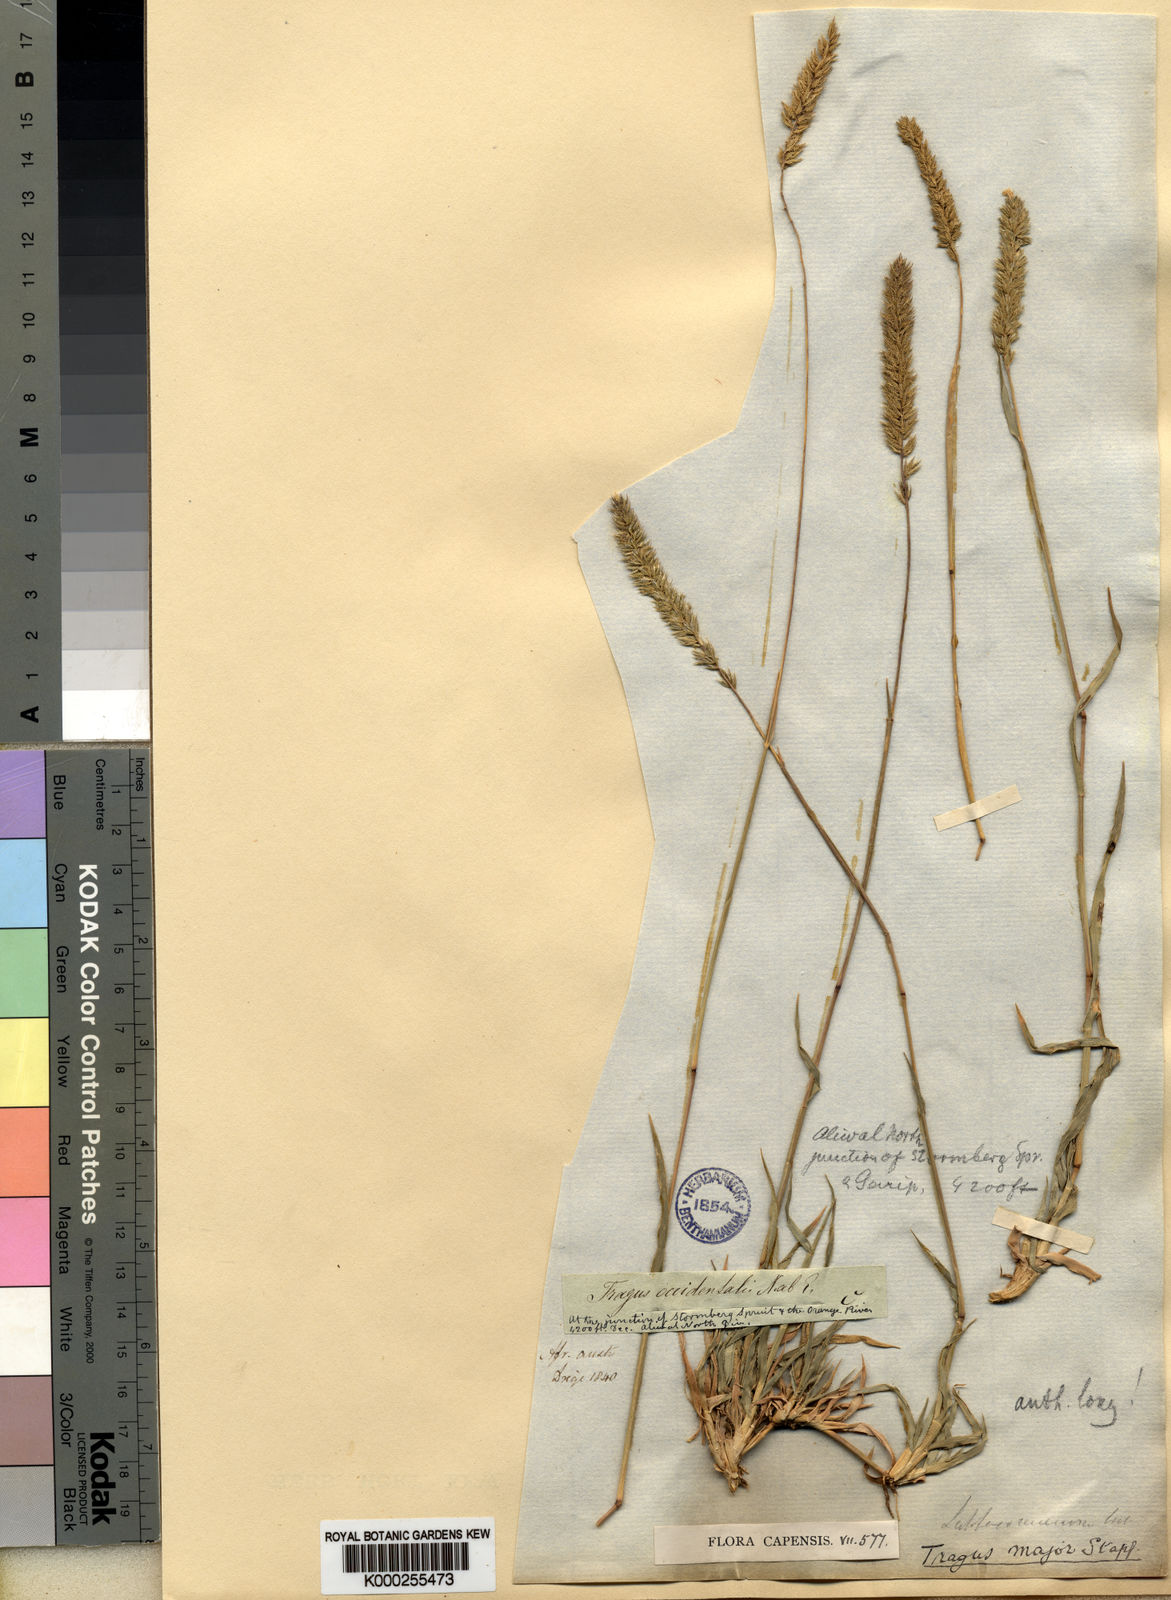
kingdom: Plantae
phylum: Tracheophyta
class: Liliopsida
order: Poales
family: Poaceae
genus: Tragus
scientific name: Tragus koelerioides
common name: Creeping carrot-seed grass
